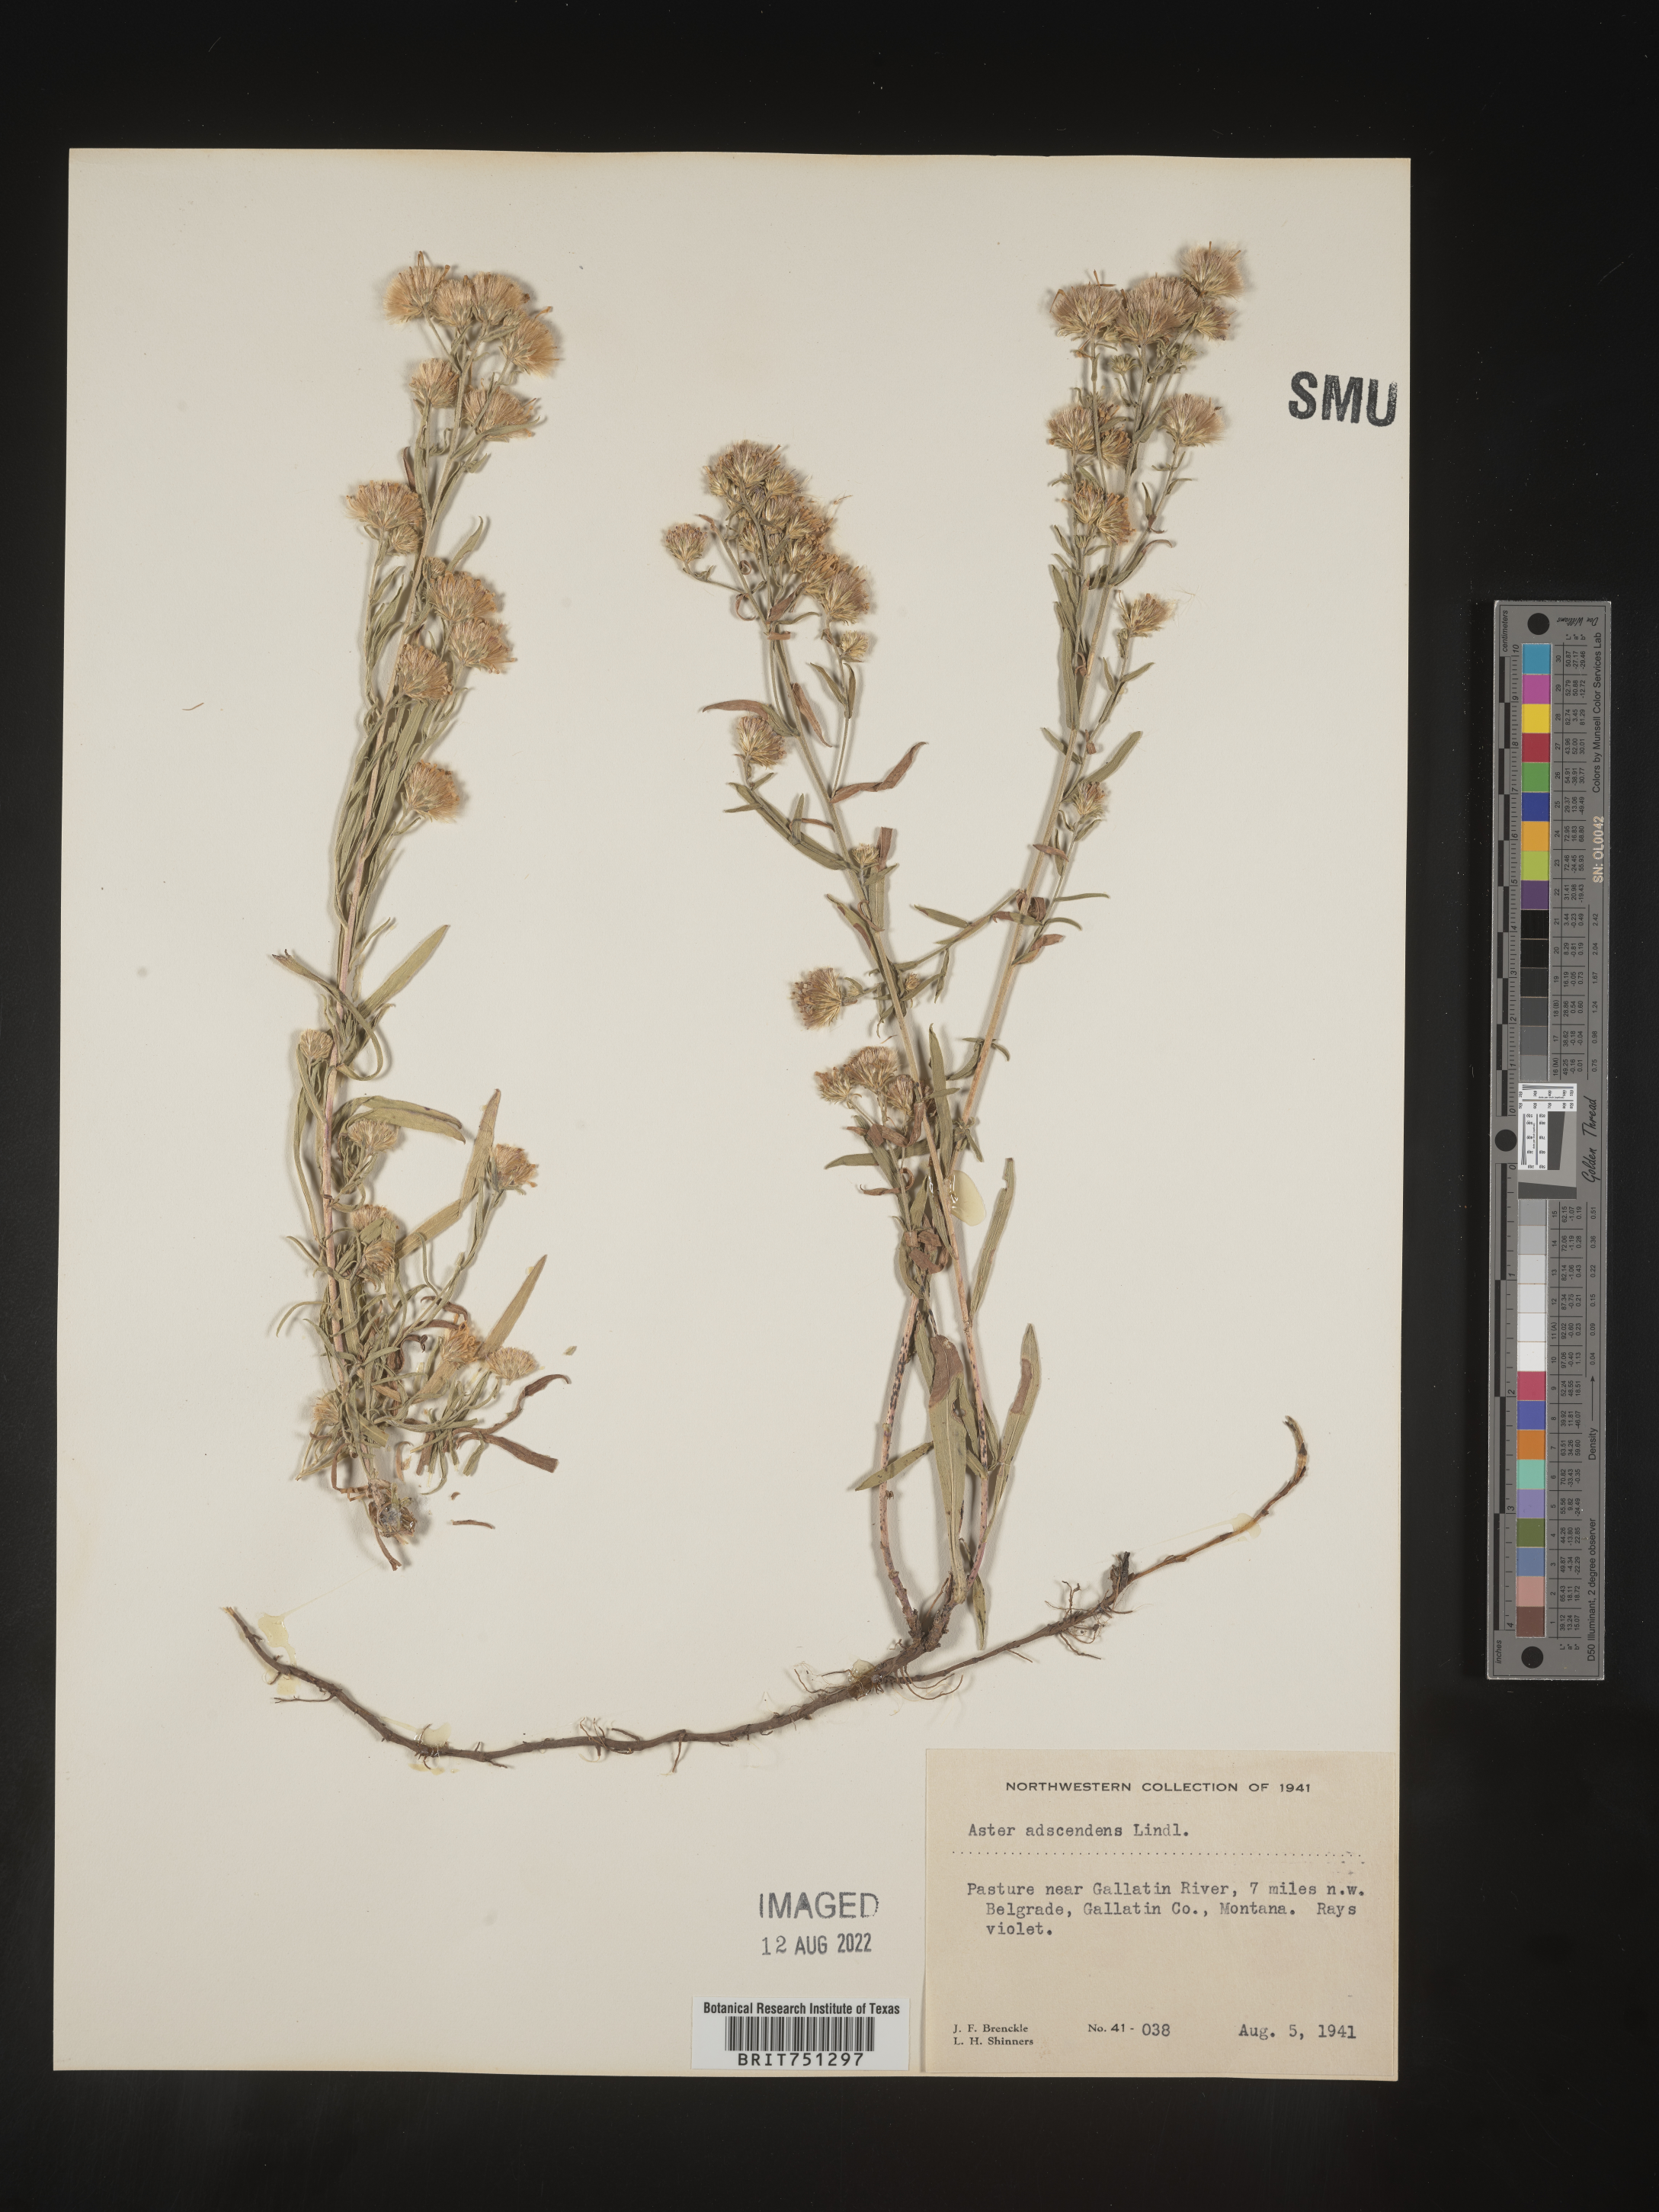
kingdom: Plantae
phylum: Tracheophyta
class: Magnoliopsida
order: Asterales
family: Asteraceae
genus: Symphyotrichum
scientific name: Symphyotrichum ascendens
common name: Intermountain aster
